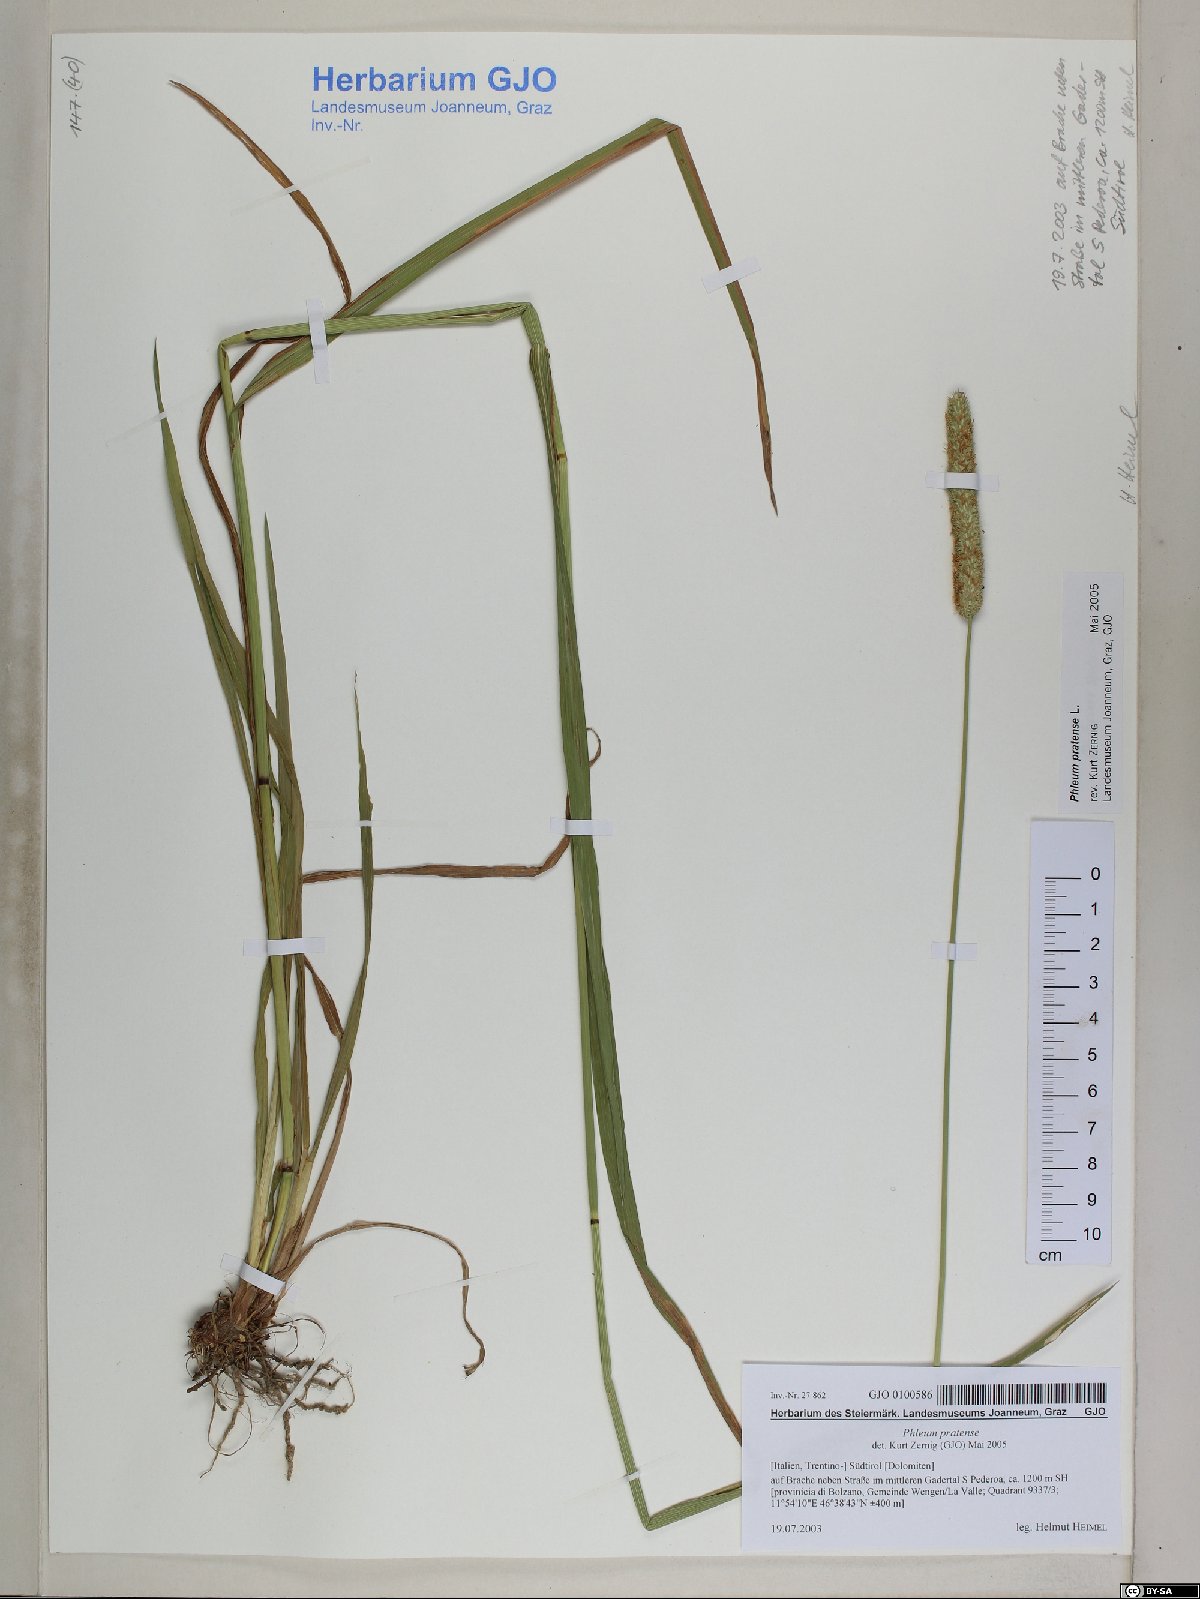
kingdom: Plantae
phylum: Tracheophyta
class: Liliopsida
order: Poales
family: Poaceae
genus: Phleum
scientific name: Phleum pratense
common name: Timothy grass
